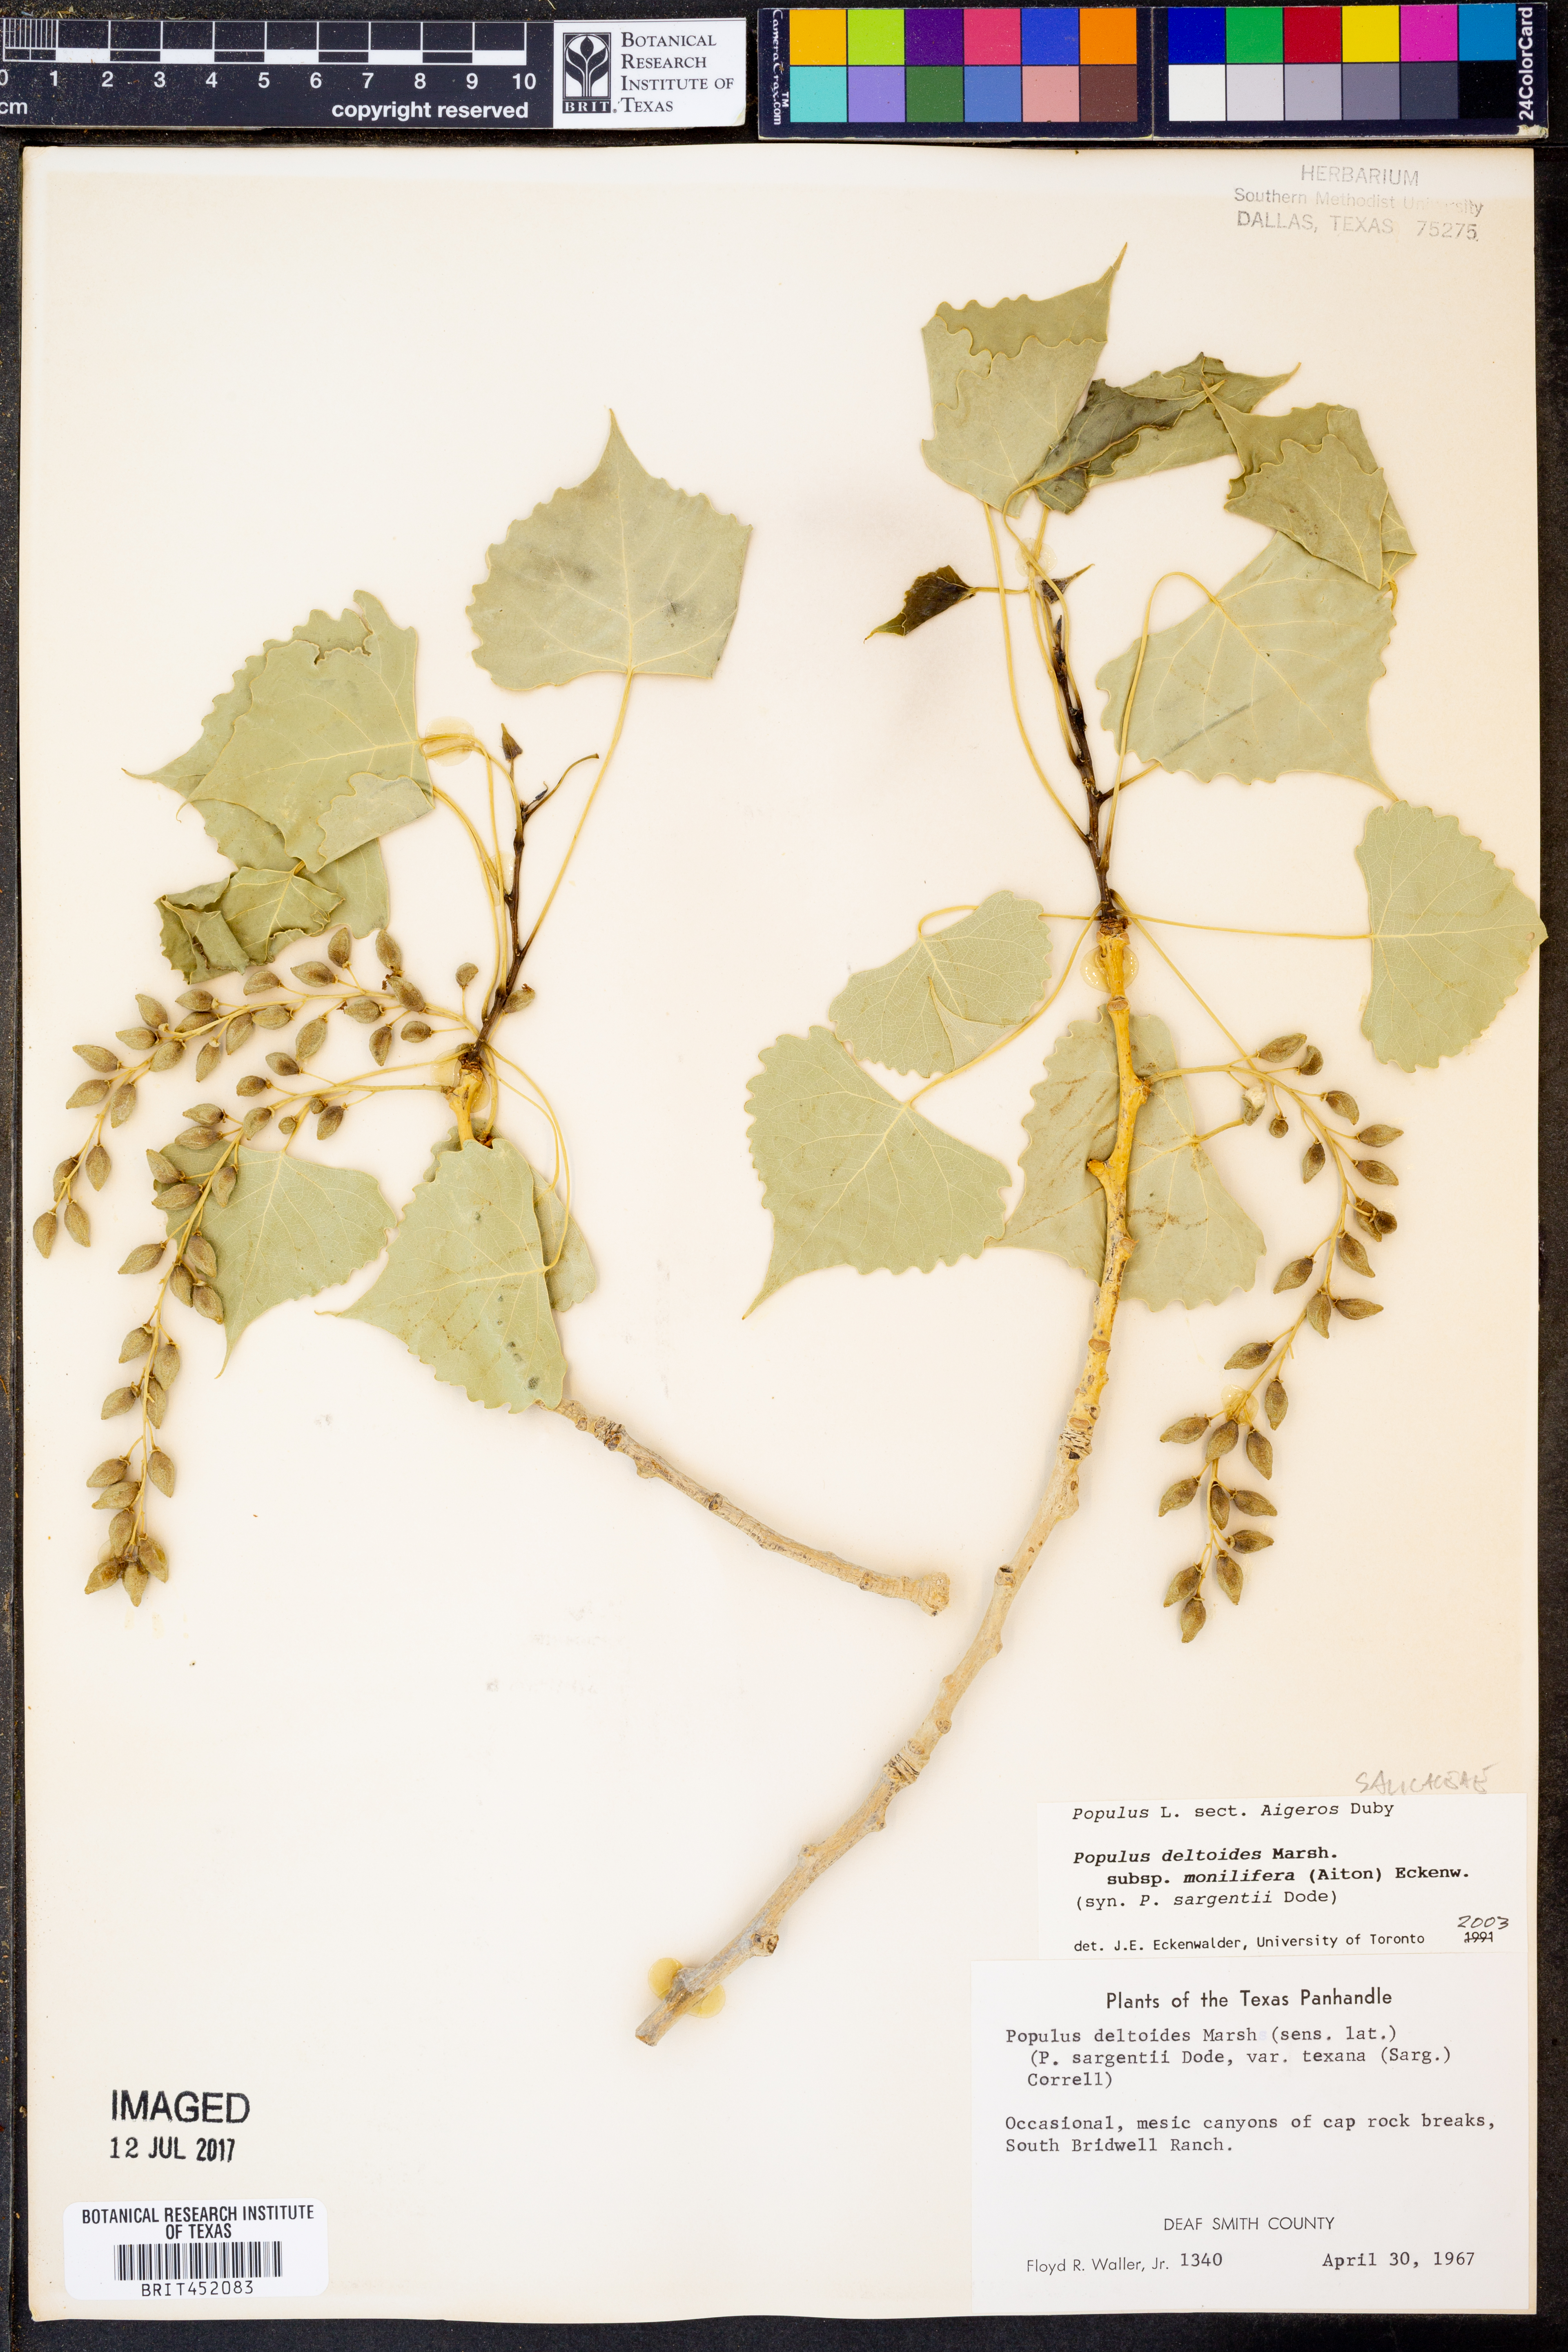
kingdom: Plantae
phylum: Tracheophyta
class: Magnoliopsida
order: Malpighiales
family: Salicaceae
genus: Populus
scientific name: Populus deltoides
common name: Eastern cottonwood
